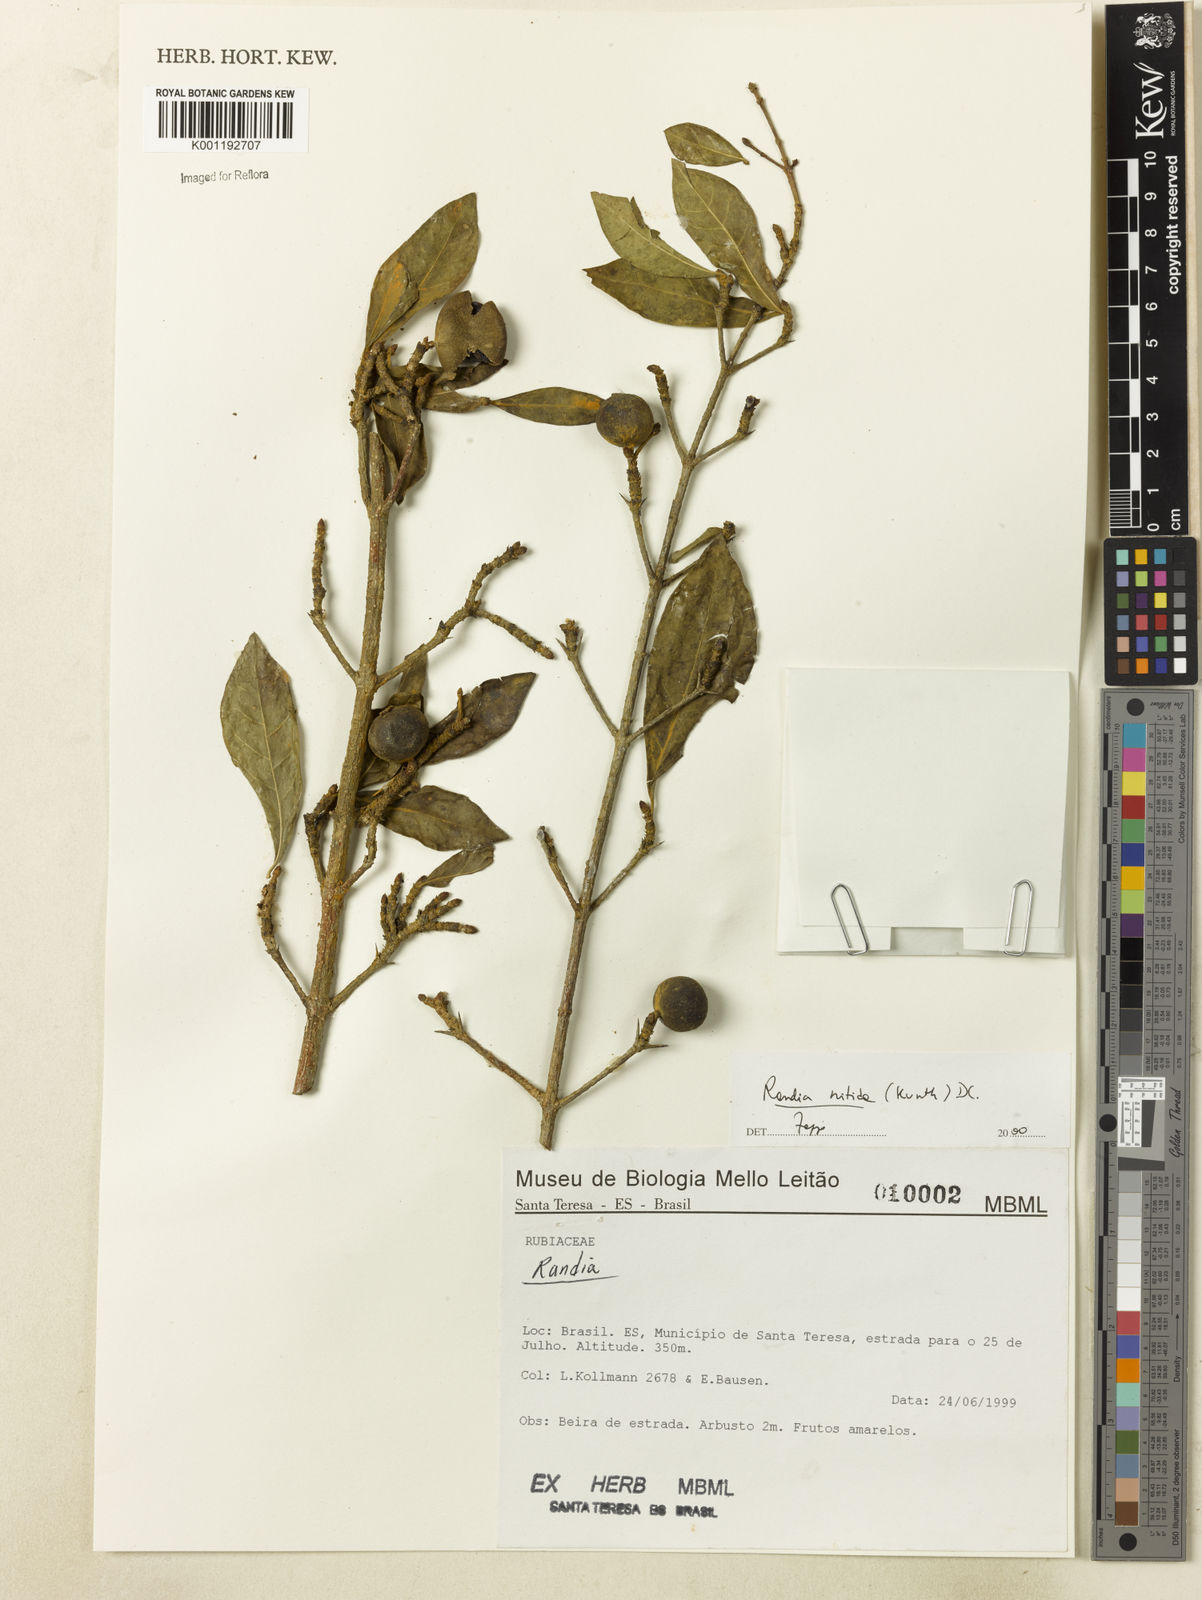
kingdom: Plantae
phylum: Tracheophyta
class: Magnoliopsida
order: Gentianales
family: Rubiaceae
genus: Randia
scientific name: Randia nitida
